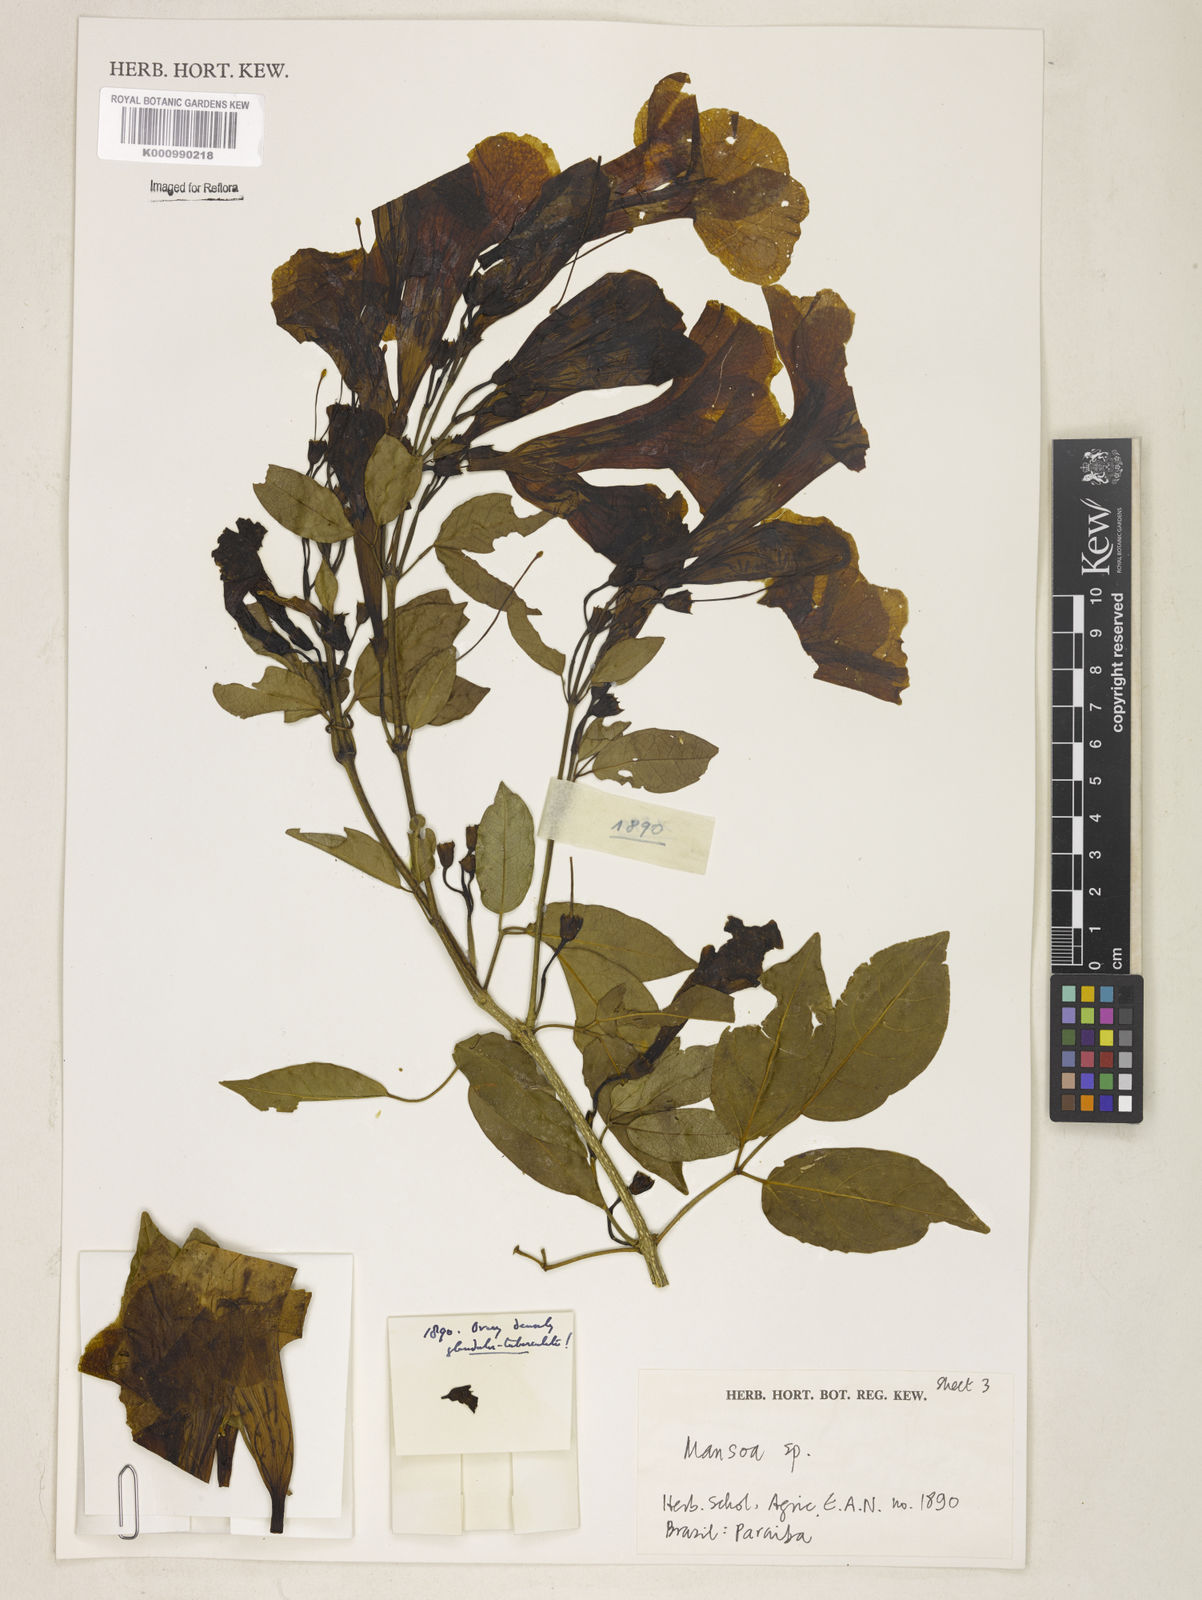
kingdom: Plantae
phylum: Tracheophyta
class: Magnoliopsida
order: Lamiales
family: Bignoniaceae
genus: Mansoa
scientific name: Mansoa
